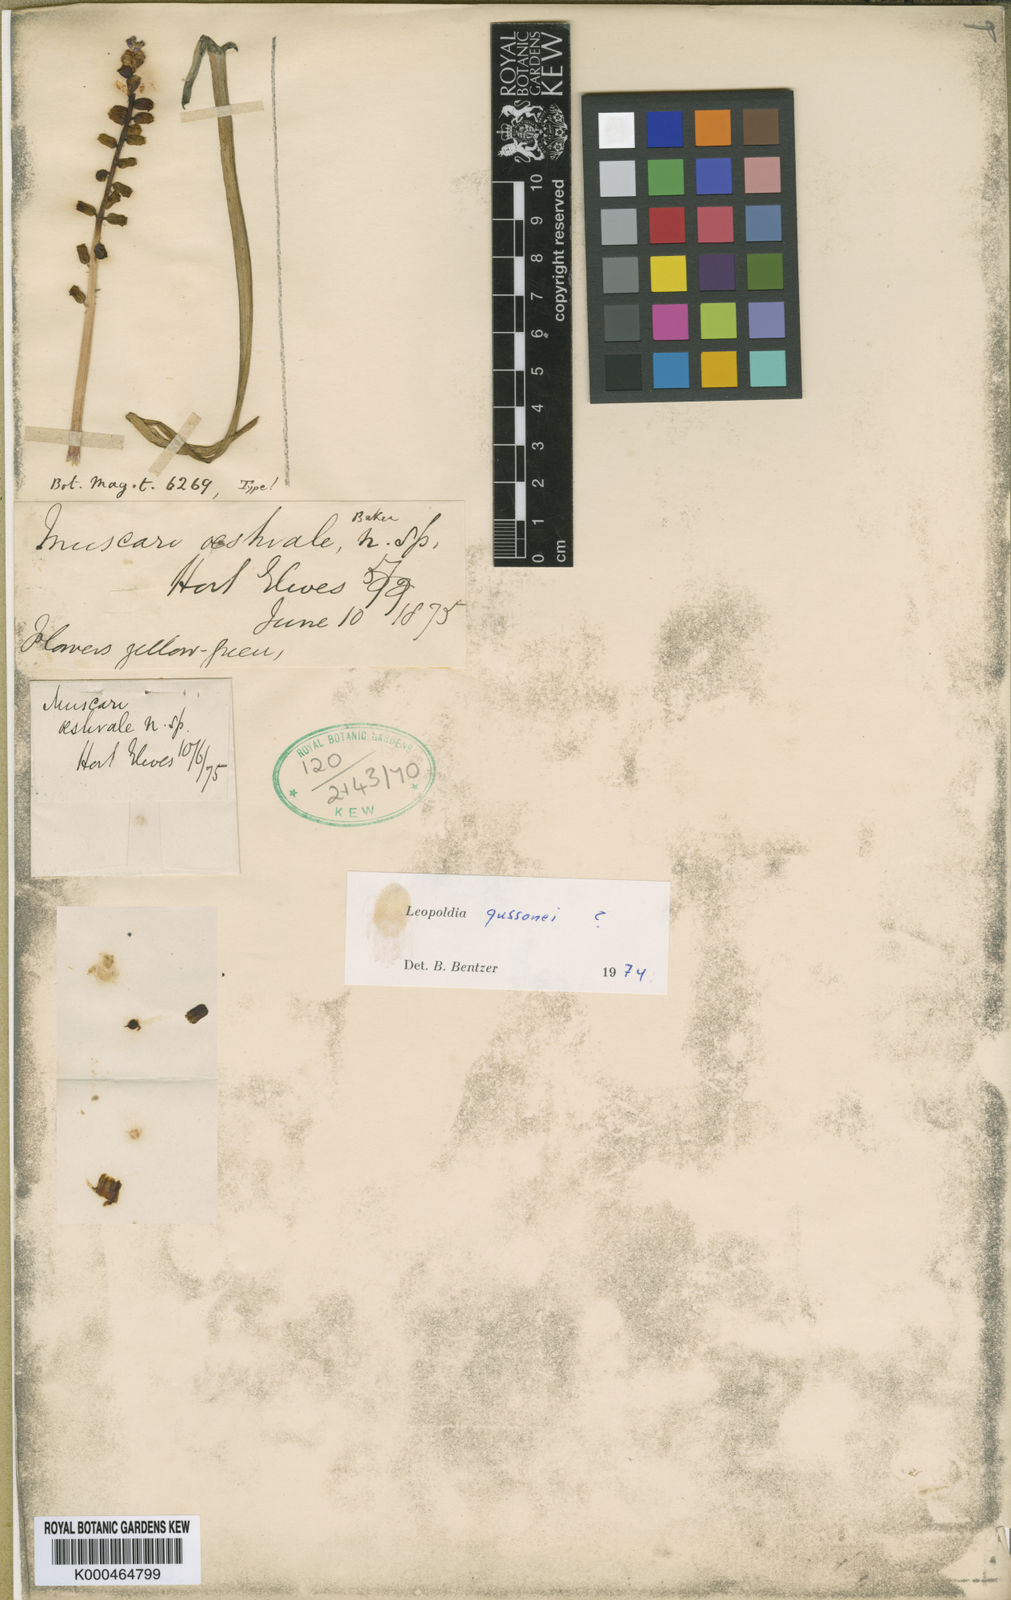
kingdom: Plantae
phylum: Tracheophyta
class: Liliopsida
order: Asparagales
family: Asparagaceae
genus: Muscari
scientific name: Muscari gussonei
